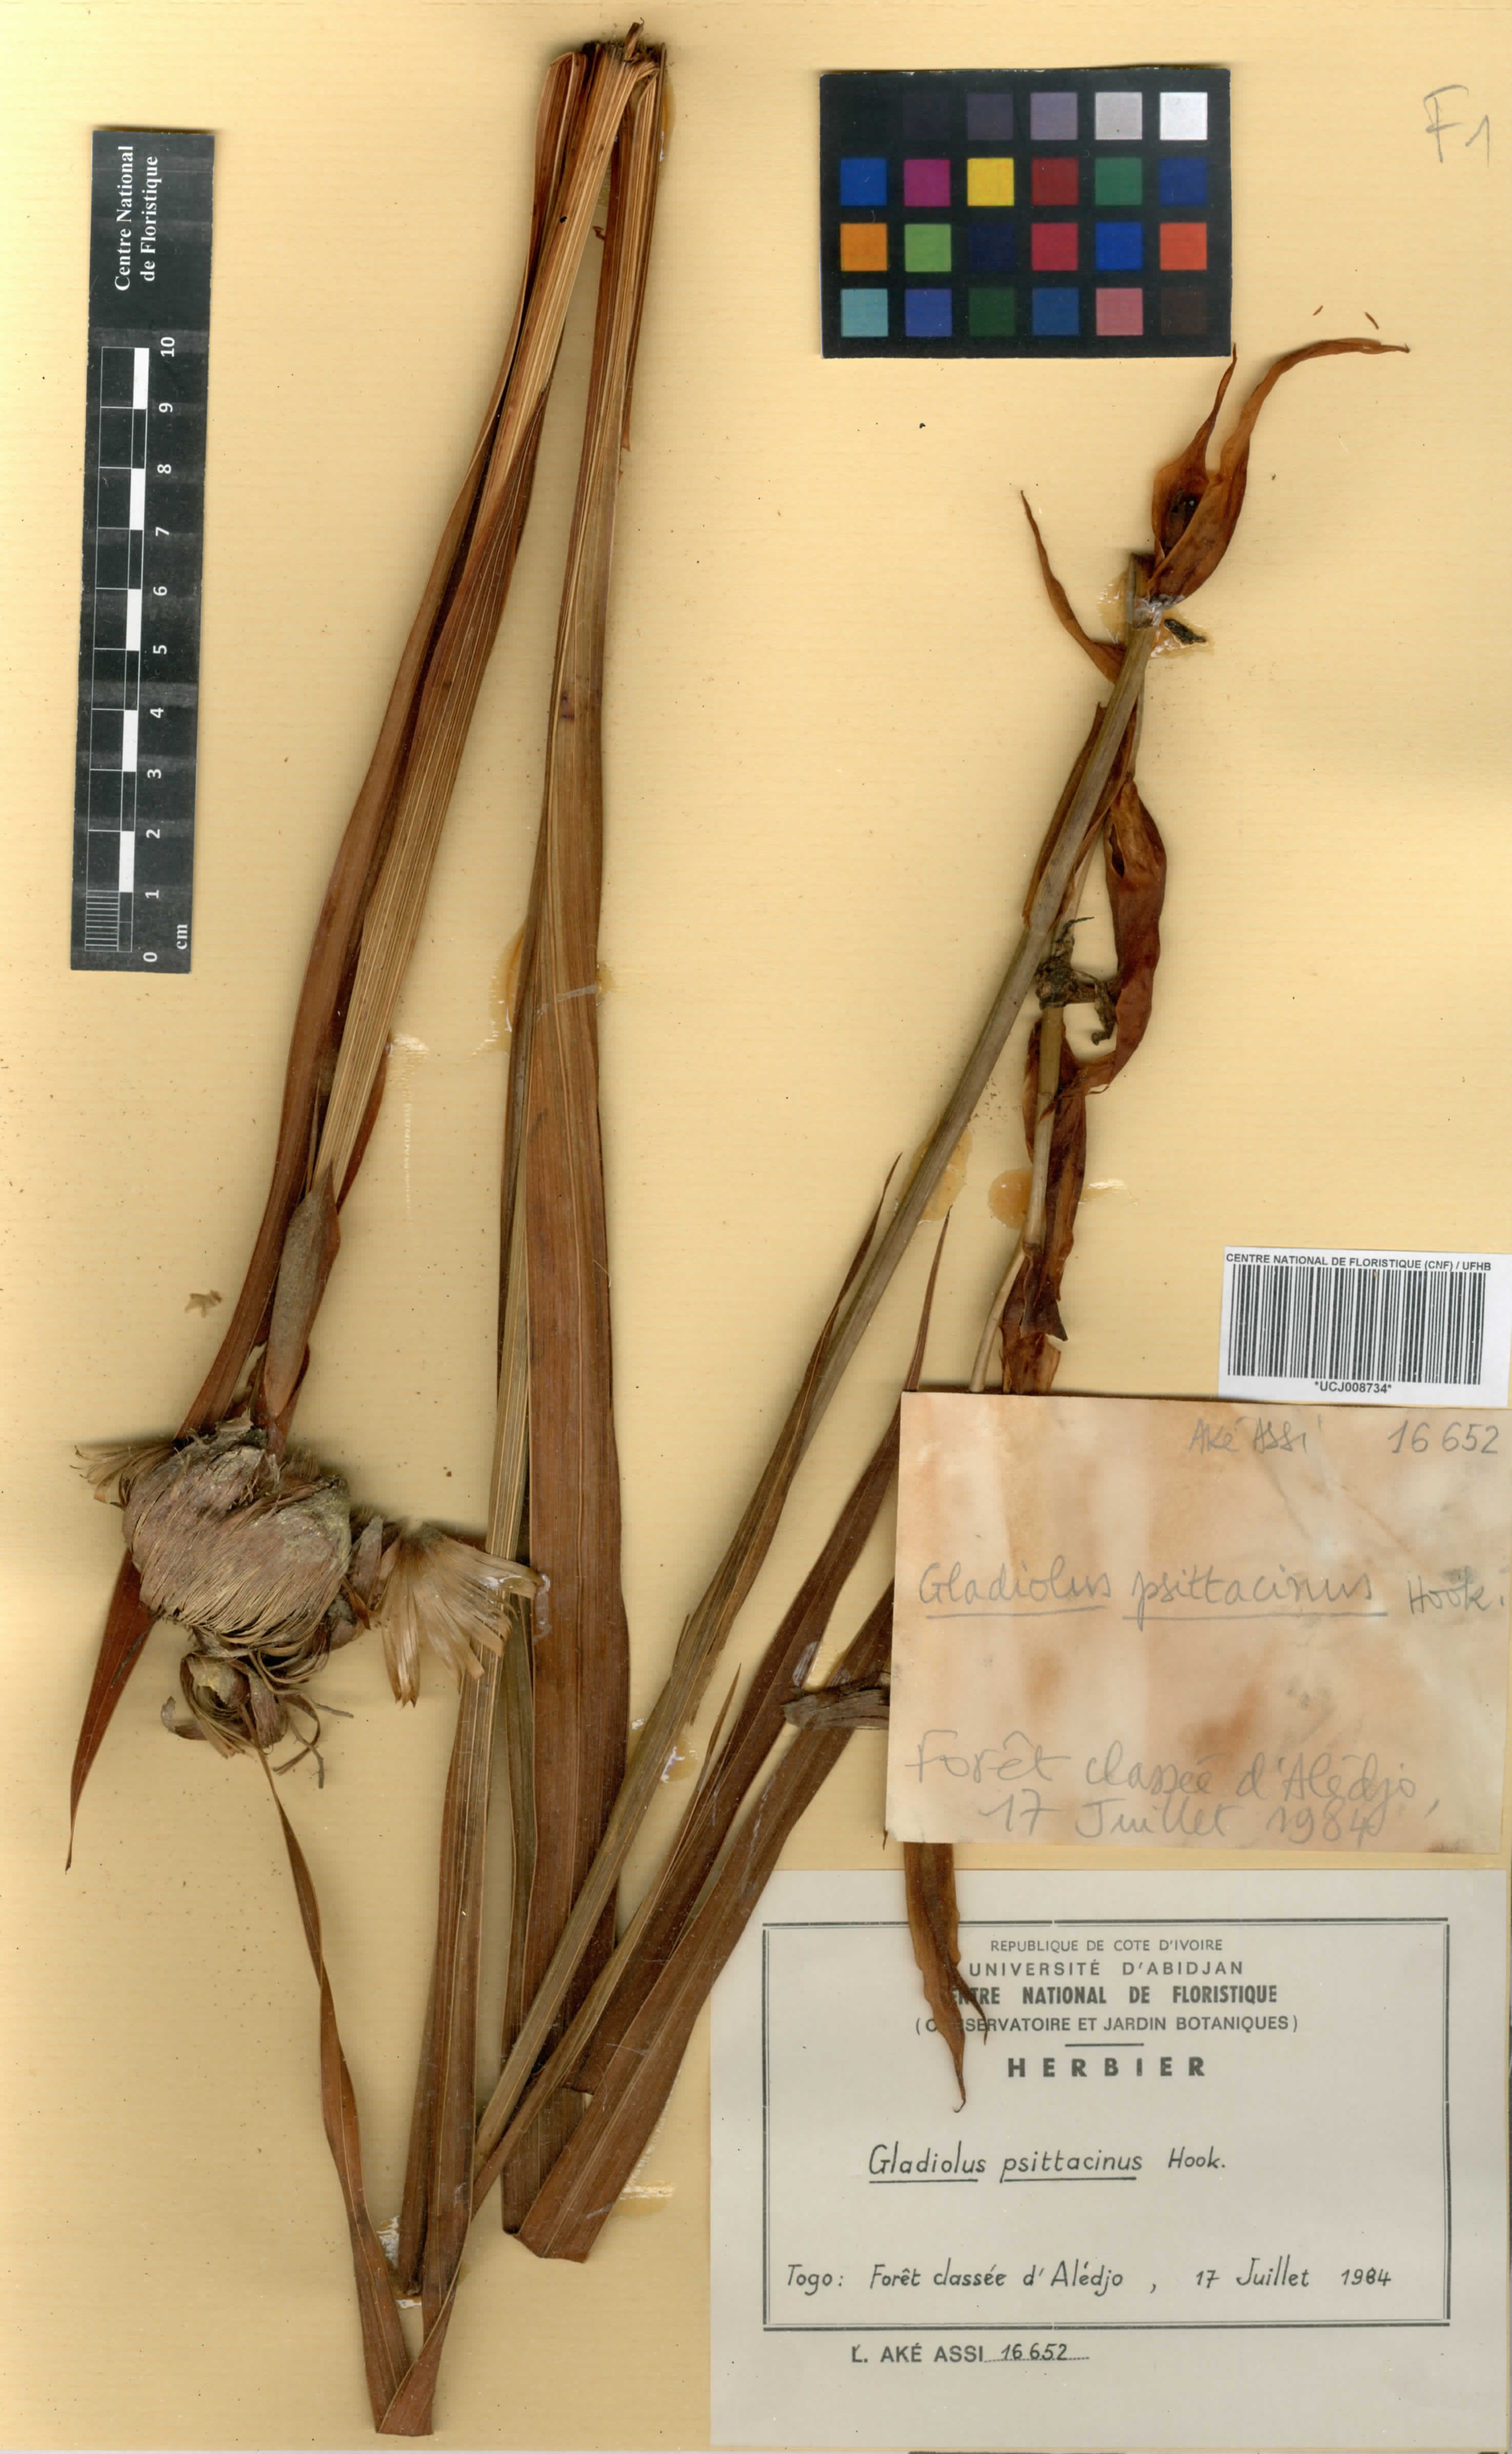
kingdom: Plantae
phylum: Tracheophyta
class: Liliopsida
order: Asparagales
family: Iridaceae
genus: Gladiolus
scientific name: Gladiolus dalenii
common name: Cornflag
